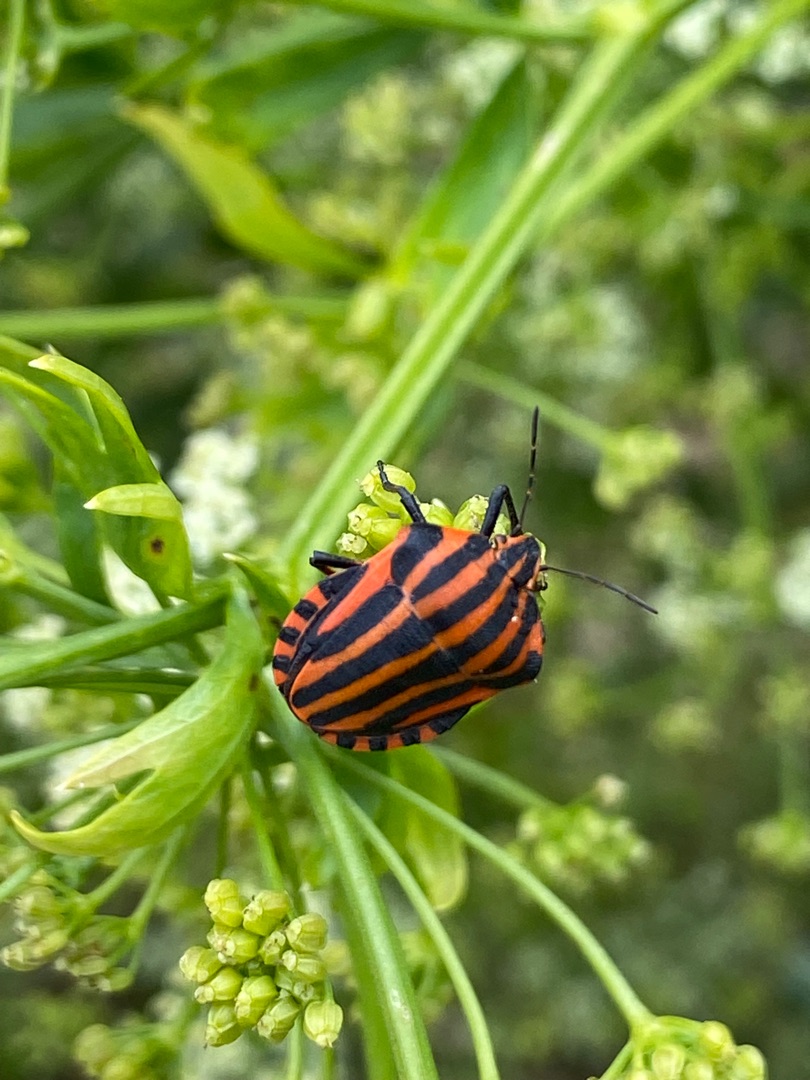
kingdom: Animalia
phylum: Arthropoda
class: Insecta
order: Hemiptera
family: Pentatomidae
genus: Graphosoma
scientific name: Graphosoma italicum
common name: Stribetæge
